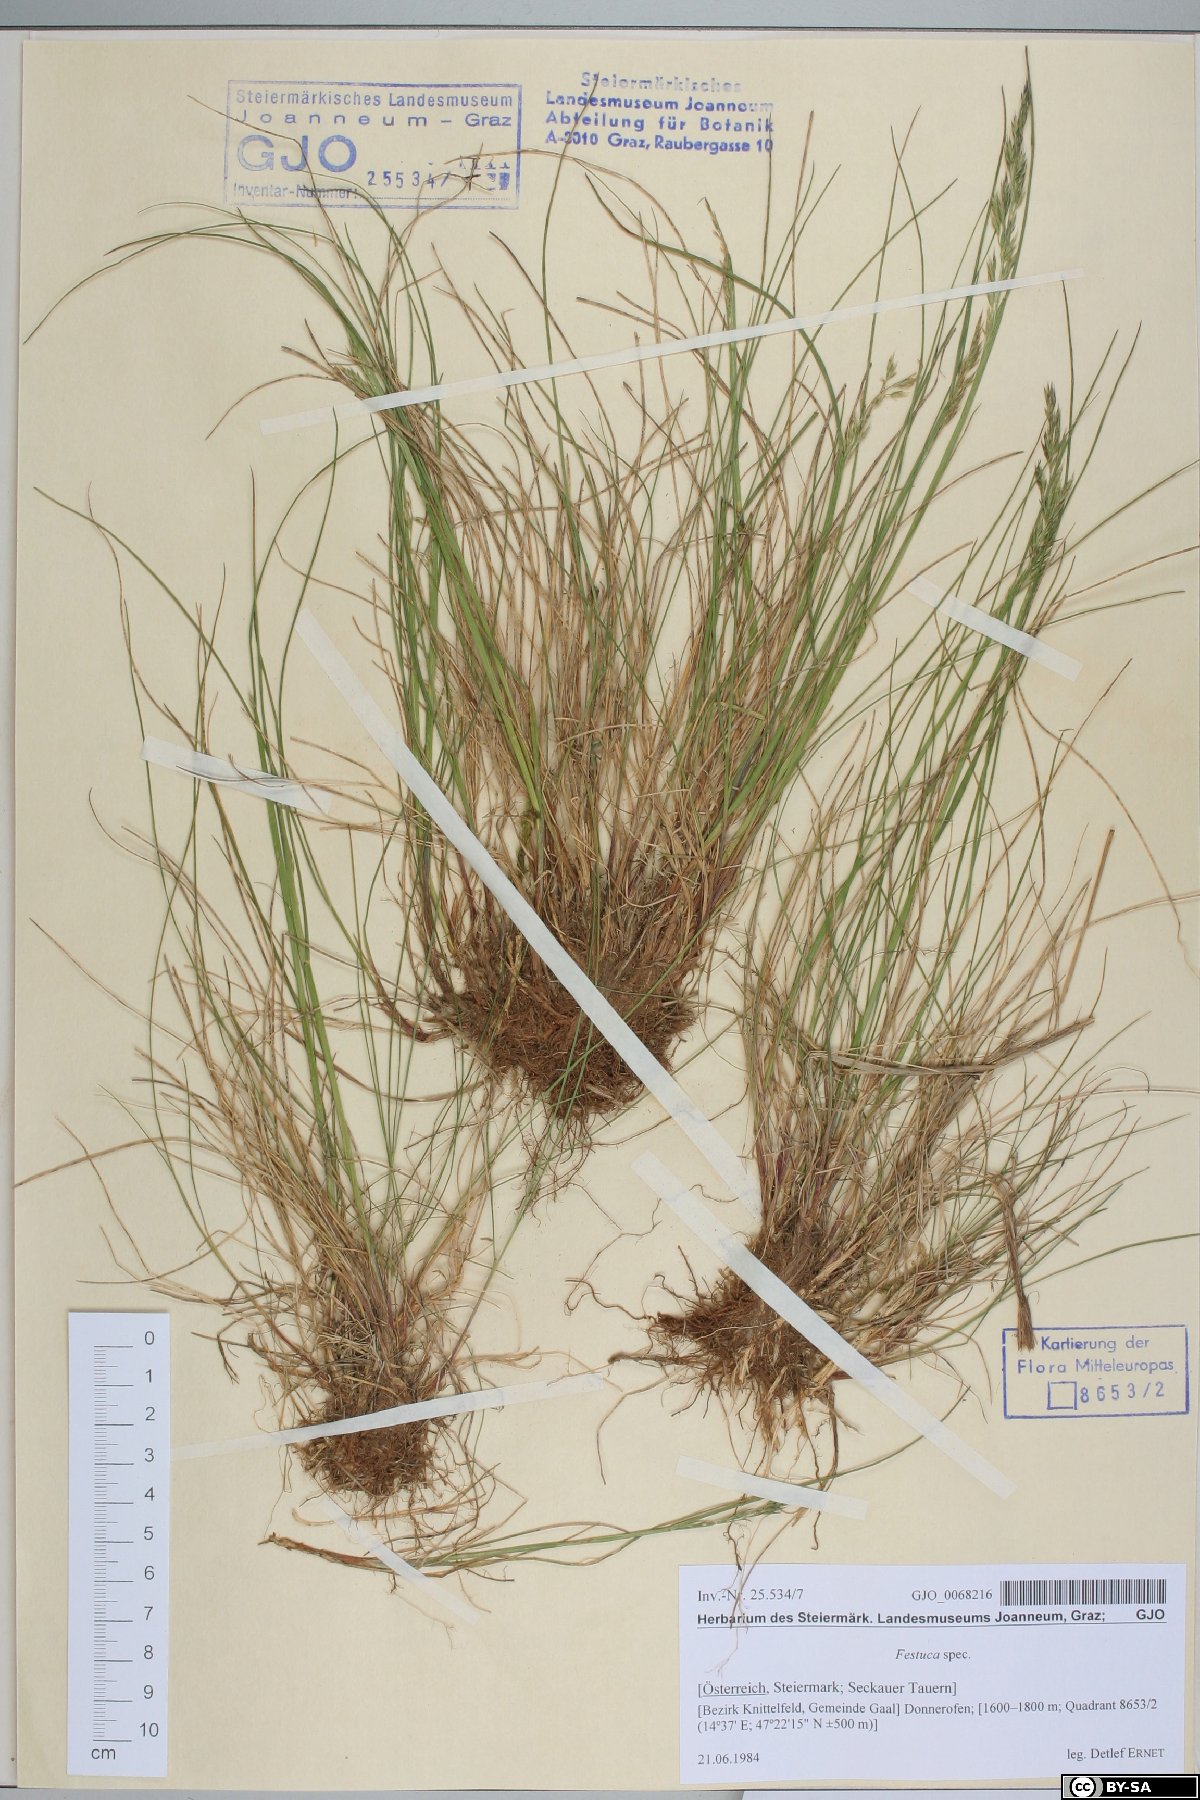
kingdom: Plantae
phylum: Tracheophyta
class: Liliopsida
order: Poales
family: Poaceae
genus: Festuca
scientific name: Festuca
